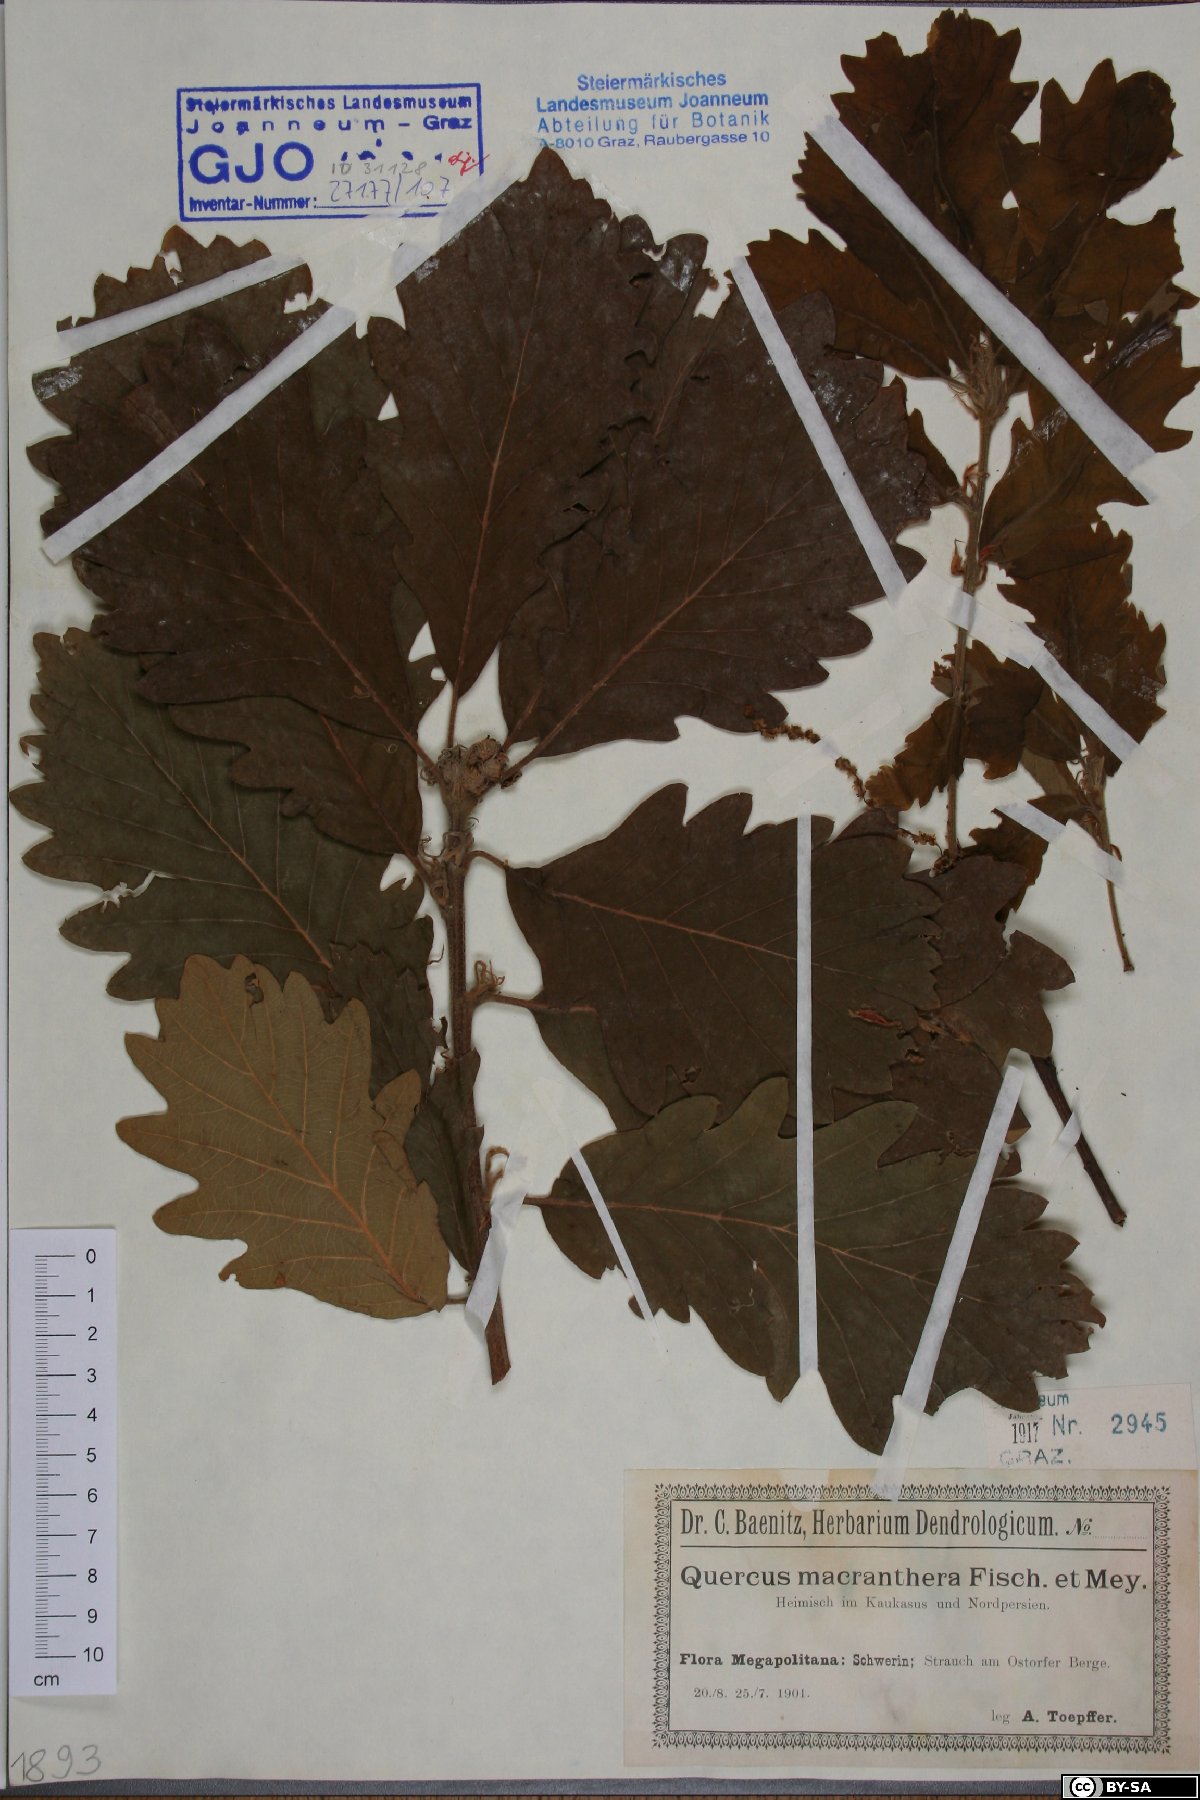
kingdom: Plantae
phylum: Tracheophyta
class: Magnoliopsida
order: Fagales
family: Fagaceae
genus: Quercus
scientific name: Quercus macranthera
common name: Caucasian oak
